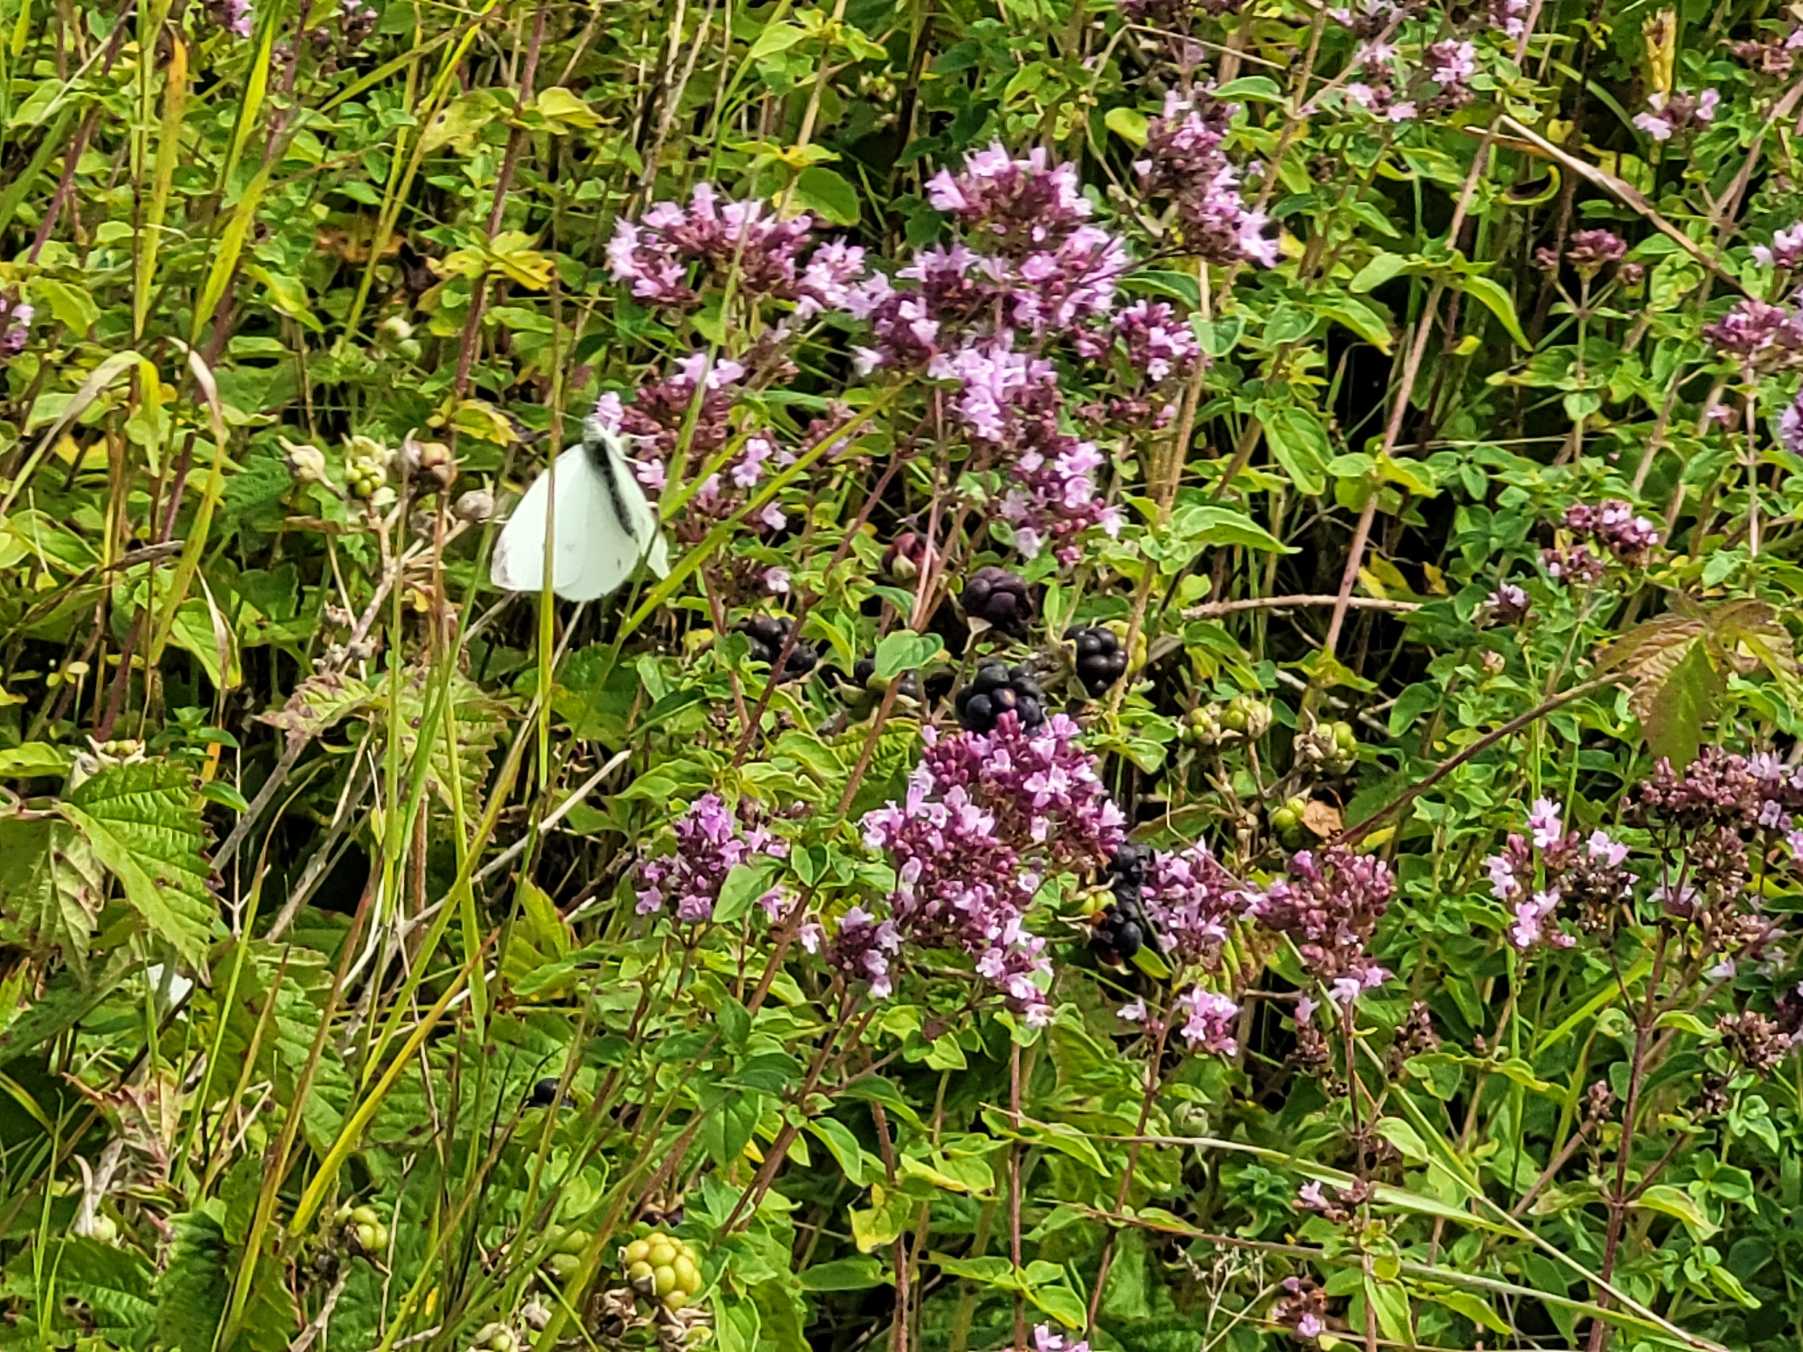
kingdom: Animalia
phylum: Arthropoda
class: Insecta
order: Lepidoptera
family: Pieridae
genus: Pieris
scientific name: Pieris rapae
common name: Lille kålsommerfugl
